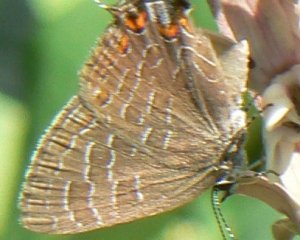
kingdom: Animalia
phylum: Arthropoda
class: Insecta
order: Lepidoptera
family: Lycaenidae
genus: Satyrium
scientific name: Satyrium liparops
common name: Striped Hairstreak
